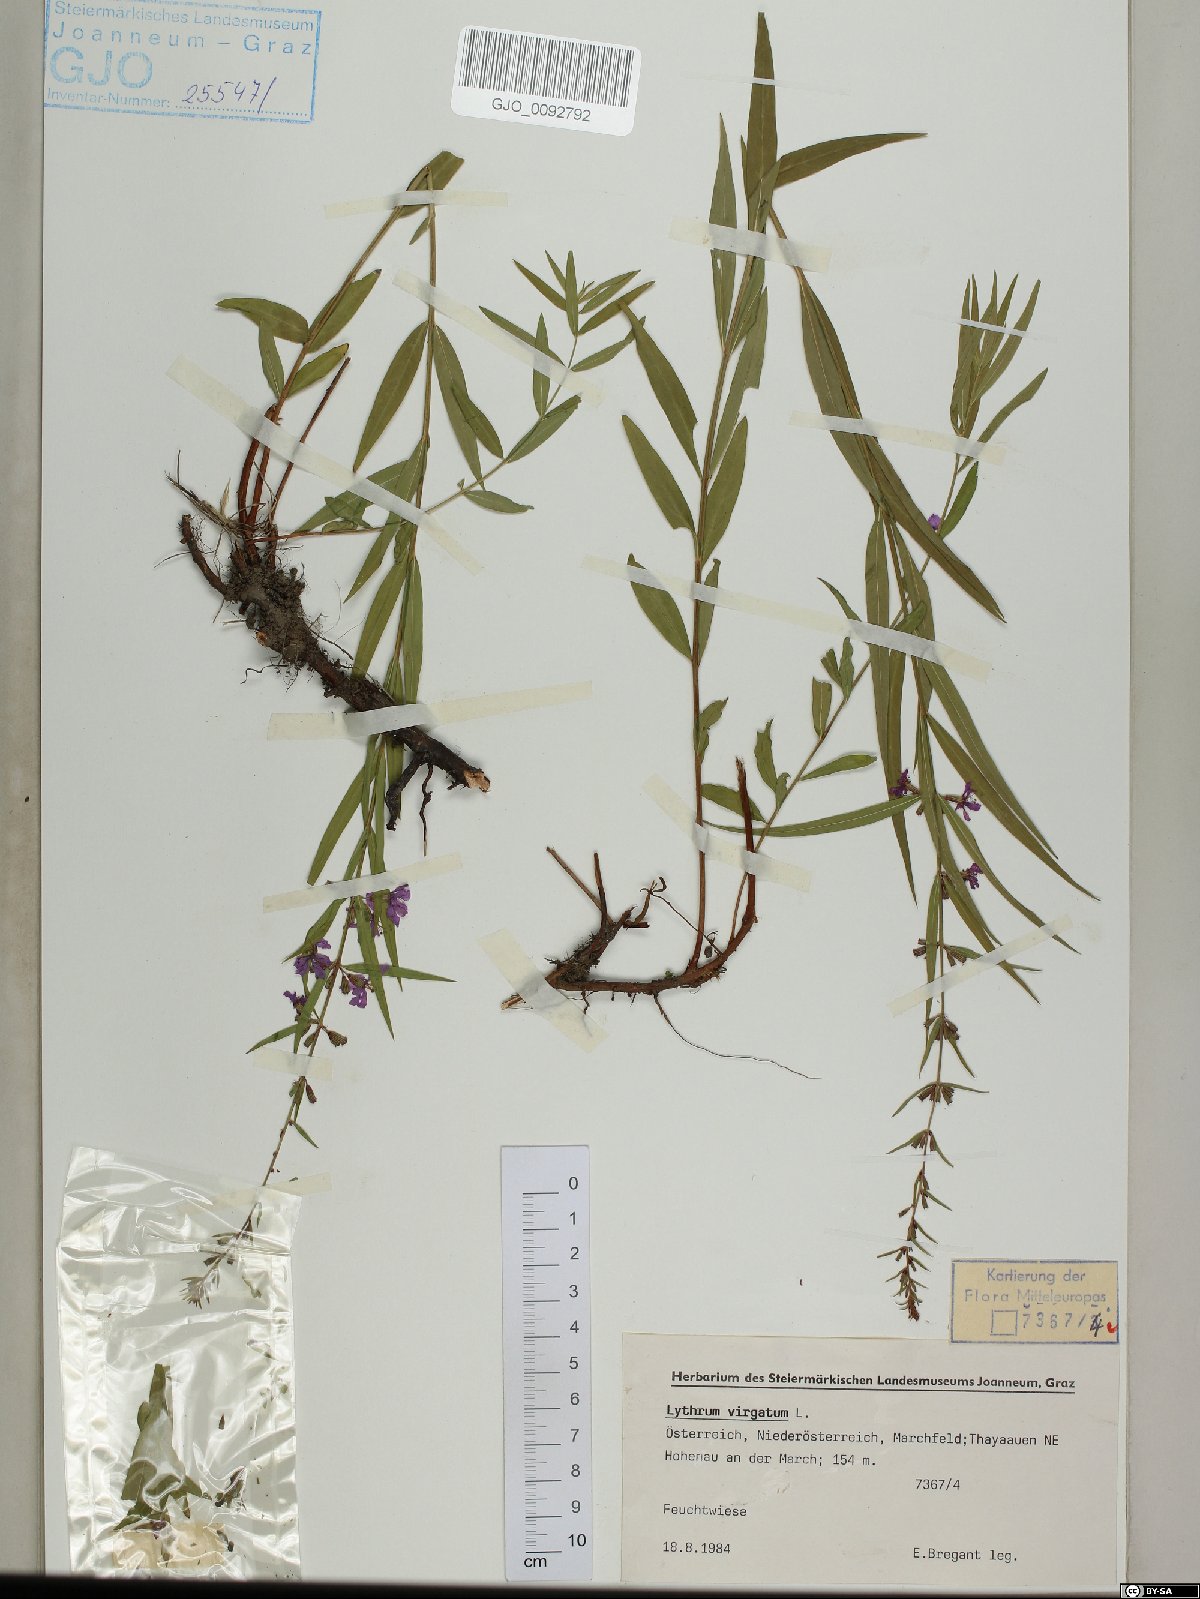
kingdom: Plantae
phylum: Tracheophyta
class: Magnoliopsida
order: Myrtales
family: Lythraceae
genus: Lythrum
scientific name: Lythrum virgatum
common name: European wand loosestrife
